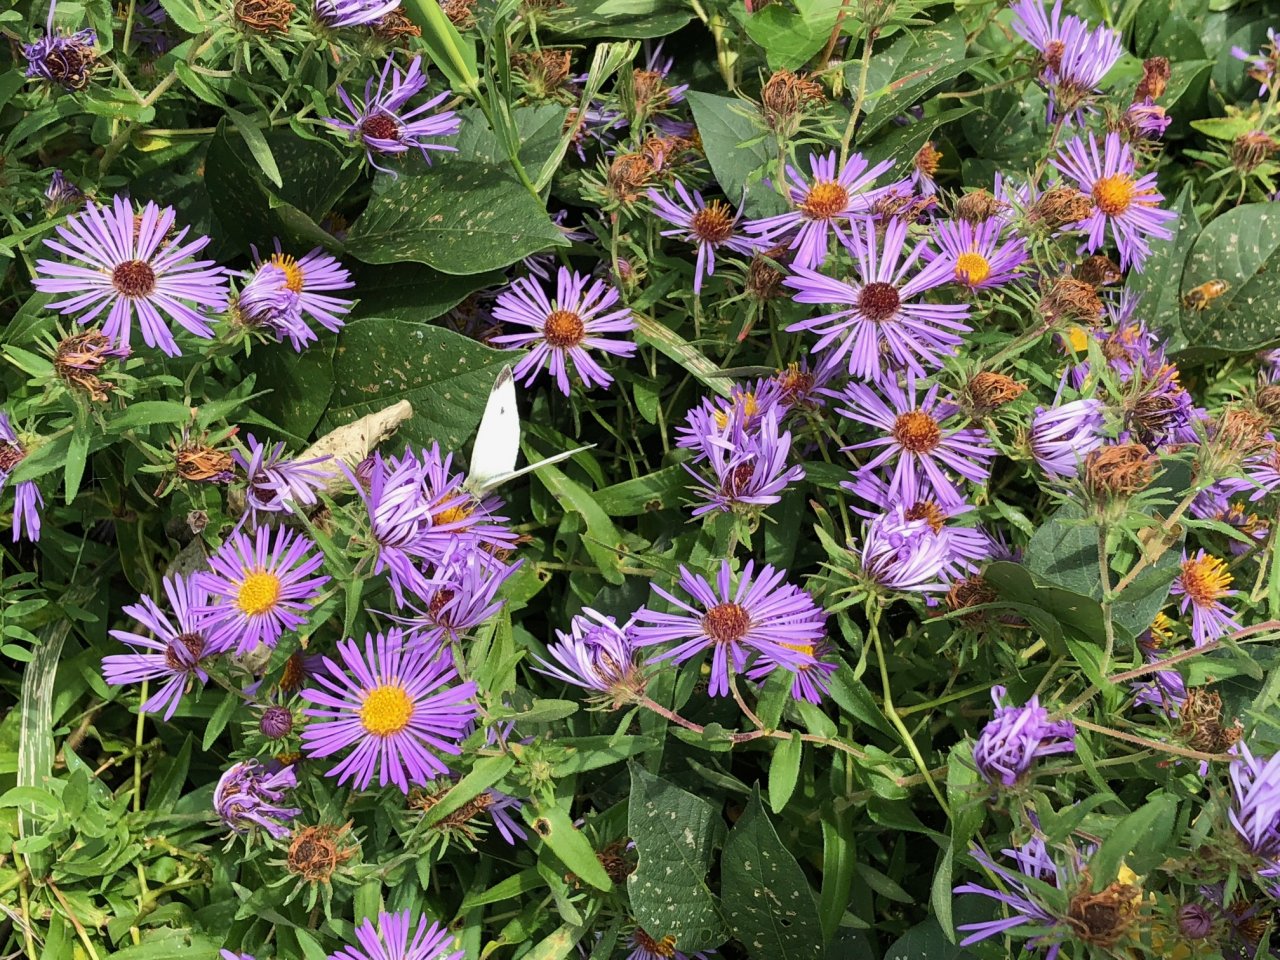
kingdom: Animalia
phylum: Arthropoda
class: Insecta
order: Lepidoptera
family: Pieridae
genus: Pieris
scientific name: Pieris rapae
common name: Cabbage White
